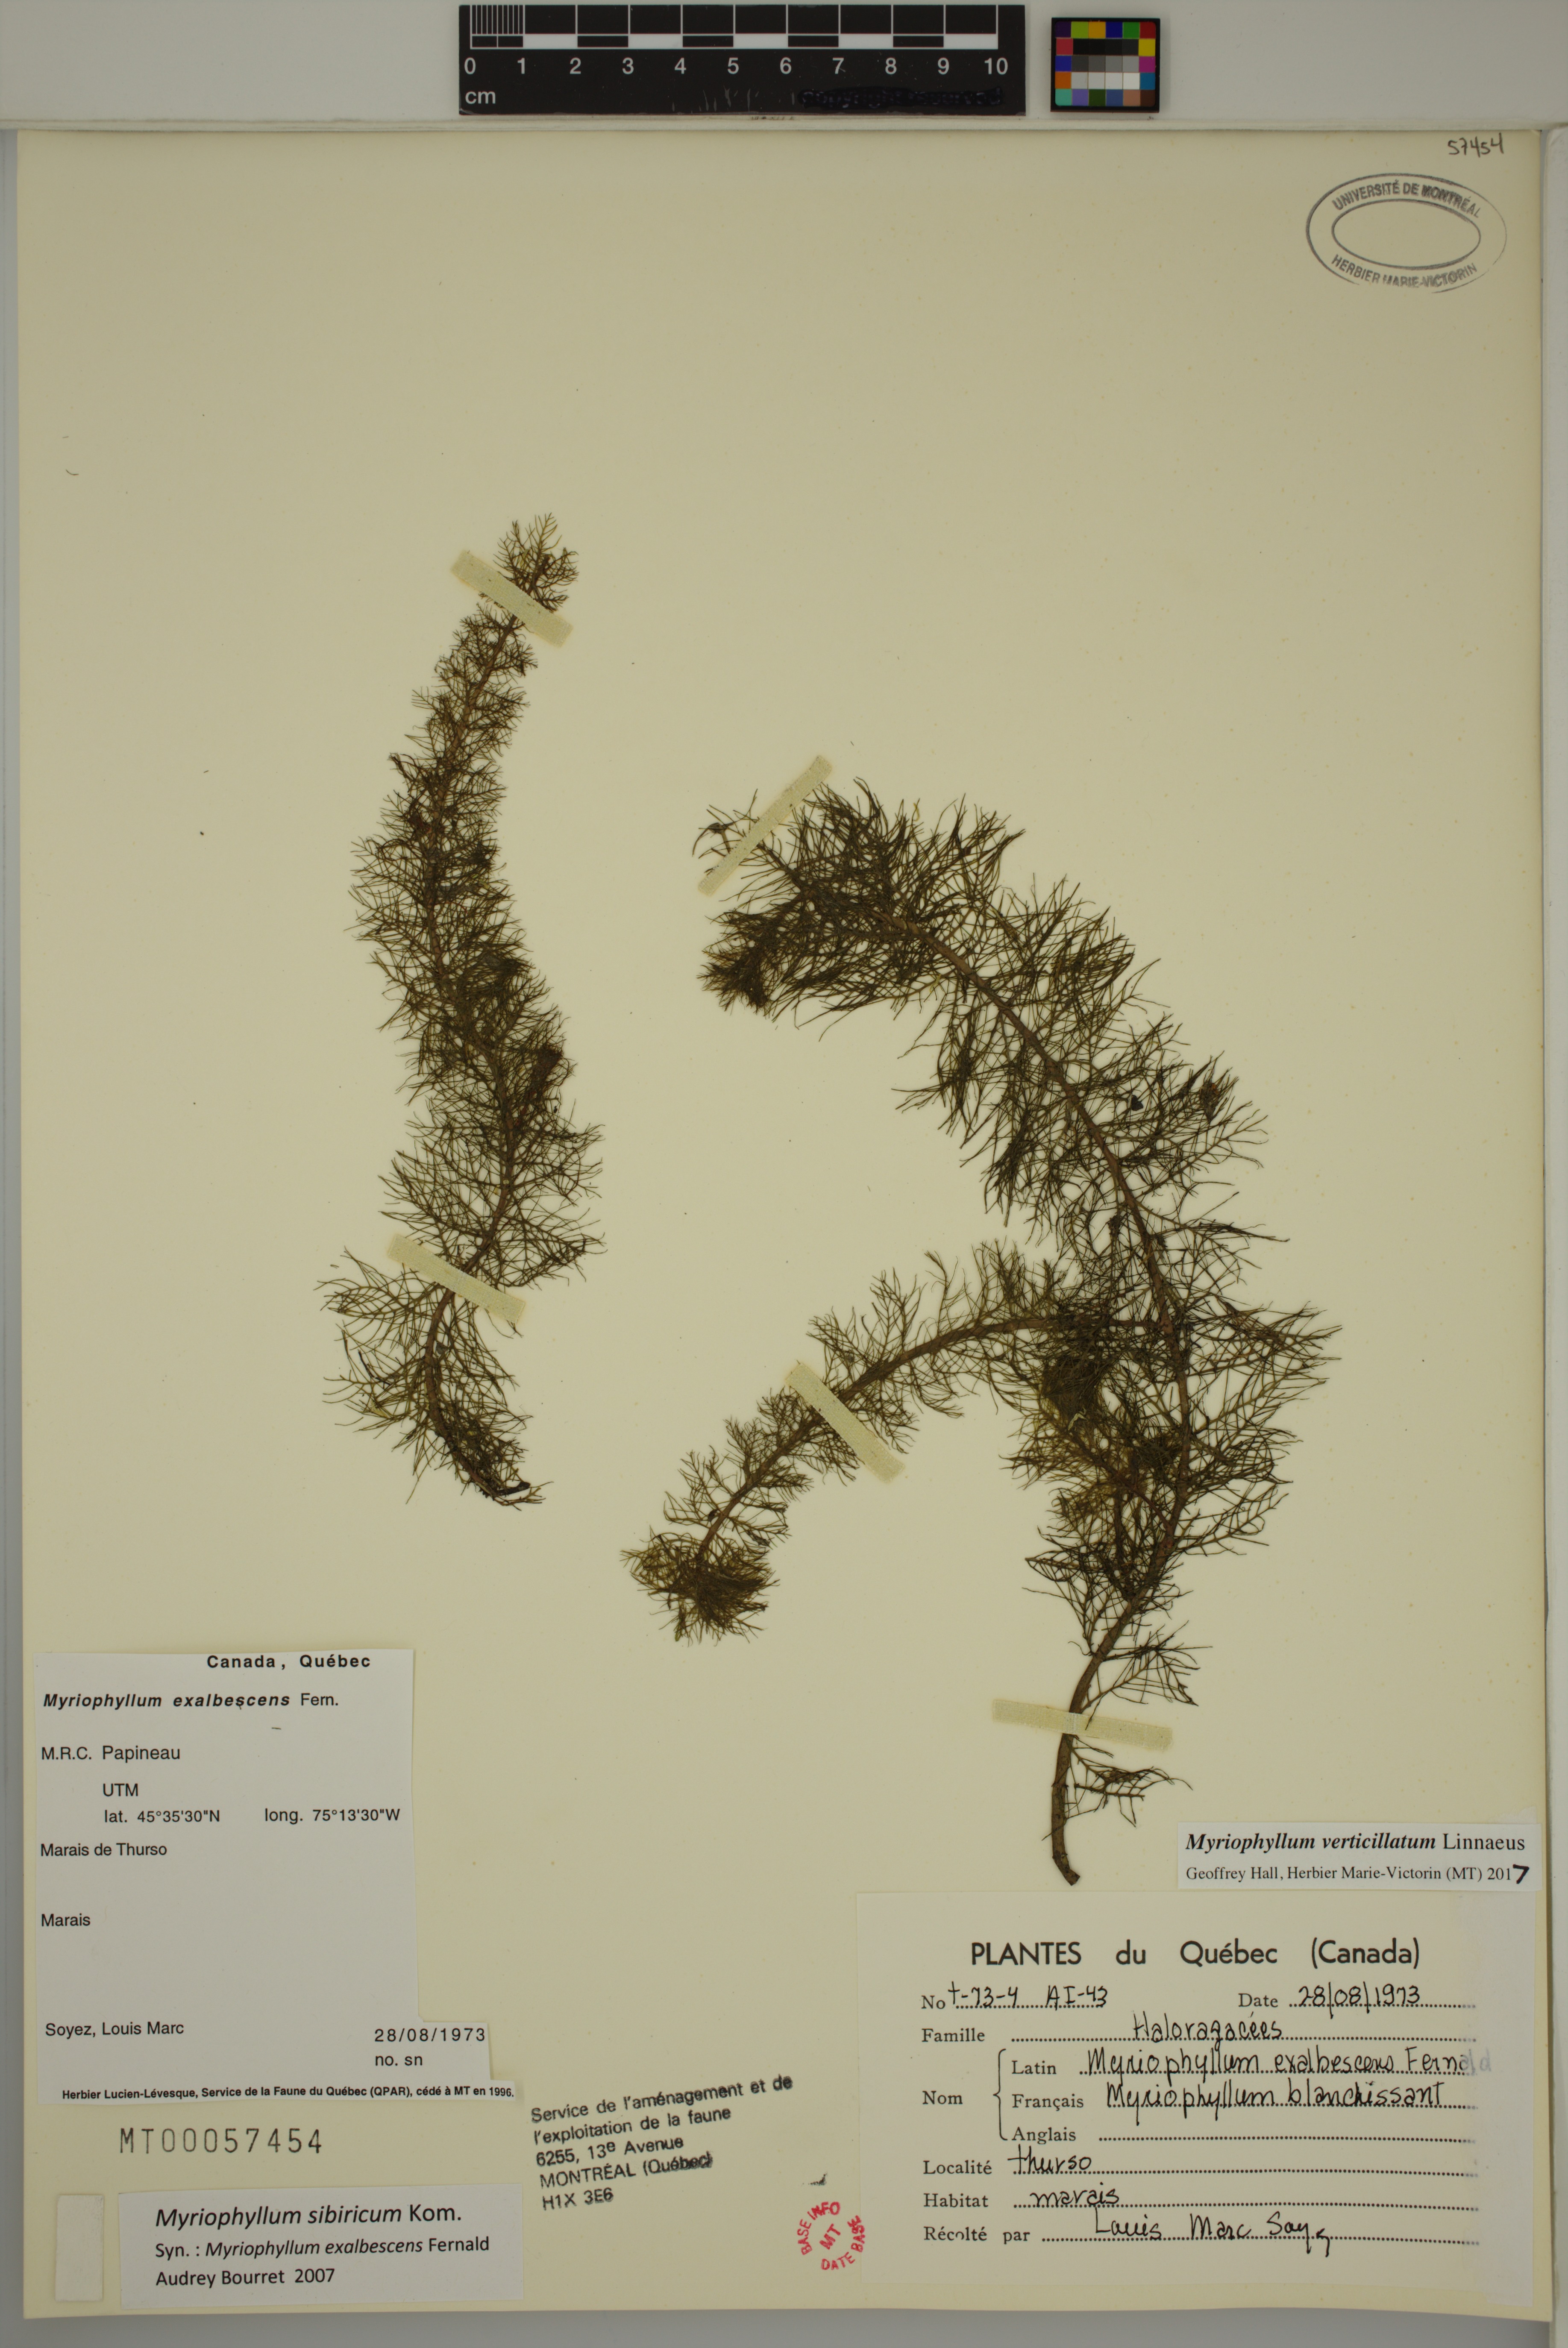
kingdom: Plantae
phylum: Tracheophyta
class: Magnoliopsida
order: Saxifragales
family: Haloragaceae
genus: Myriophyllum
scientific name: Myriophyllum verticillatum
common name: Whorled water-milfoil
